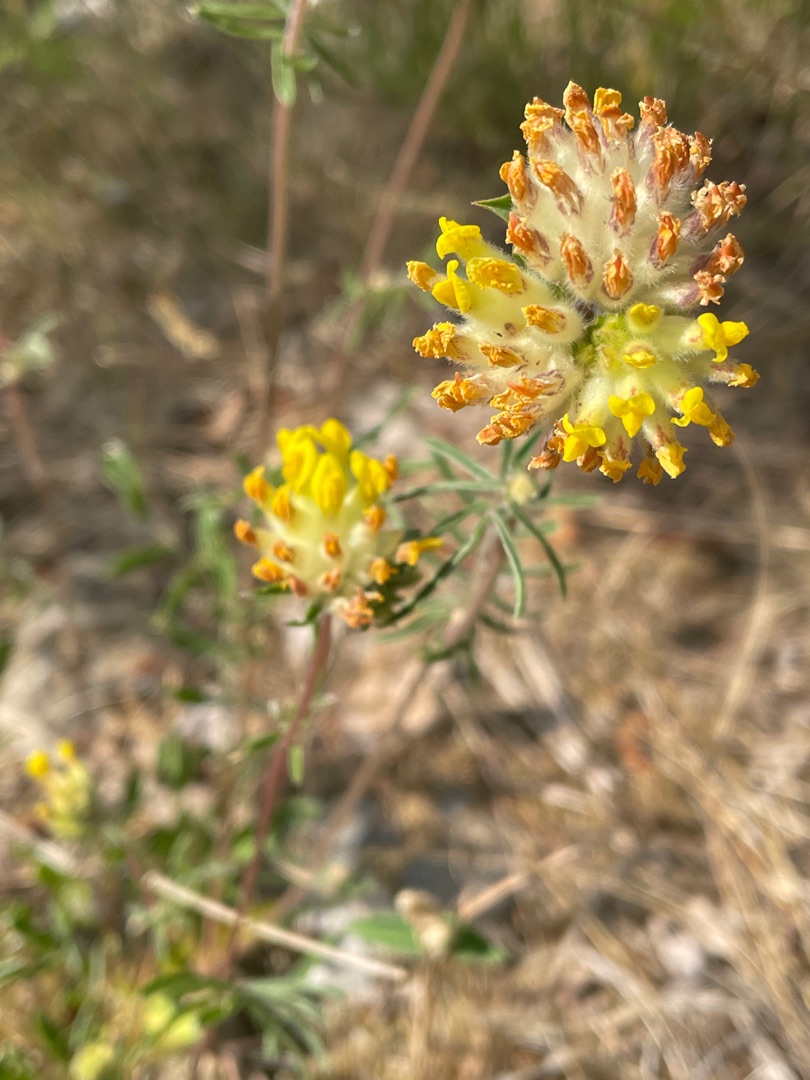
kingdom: Plantae
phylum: Tracheophyta
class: Magnoliopsida
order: Fabales
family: Fabaceae
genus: Anthyllis
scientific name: Anthyllis vulneraria
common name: Rundbælg
